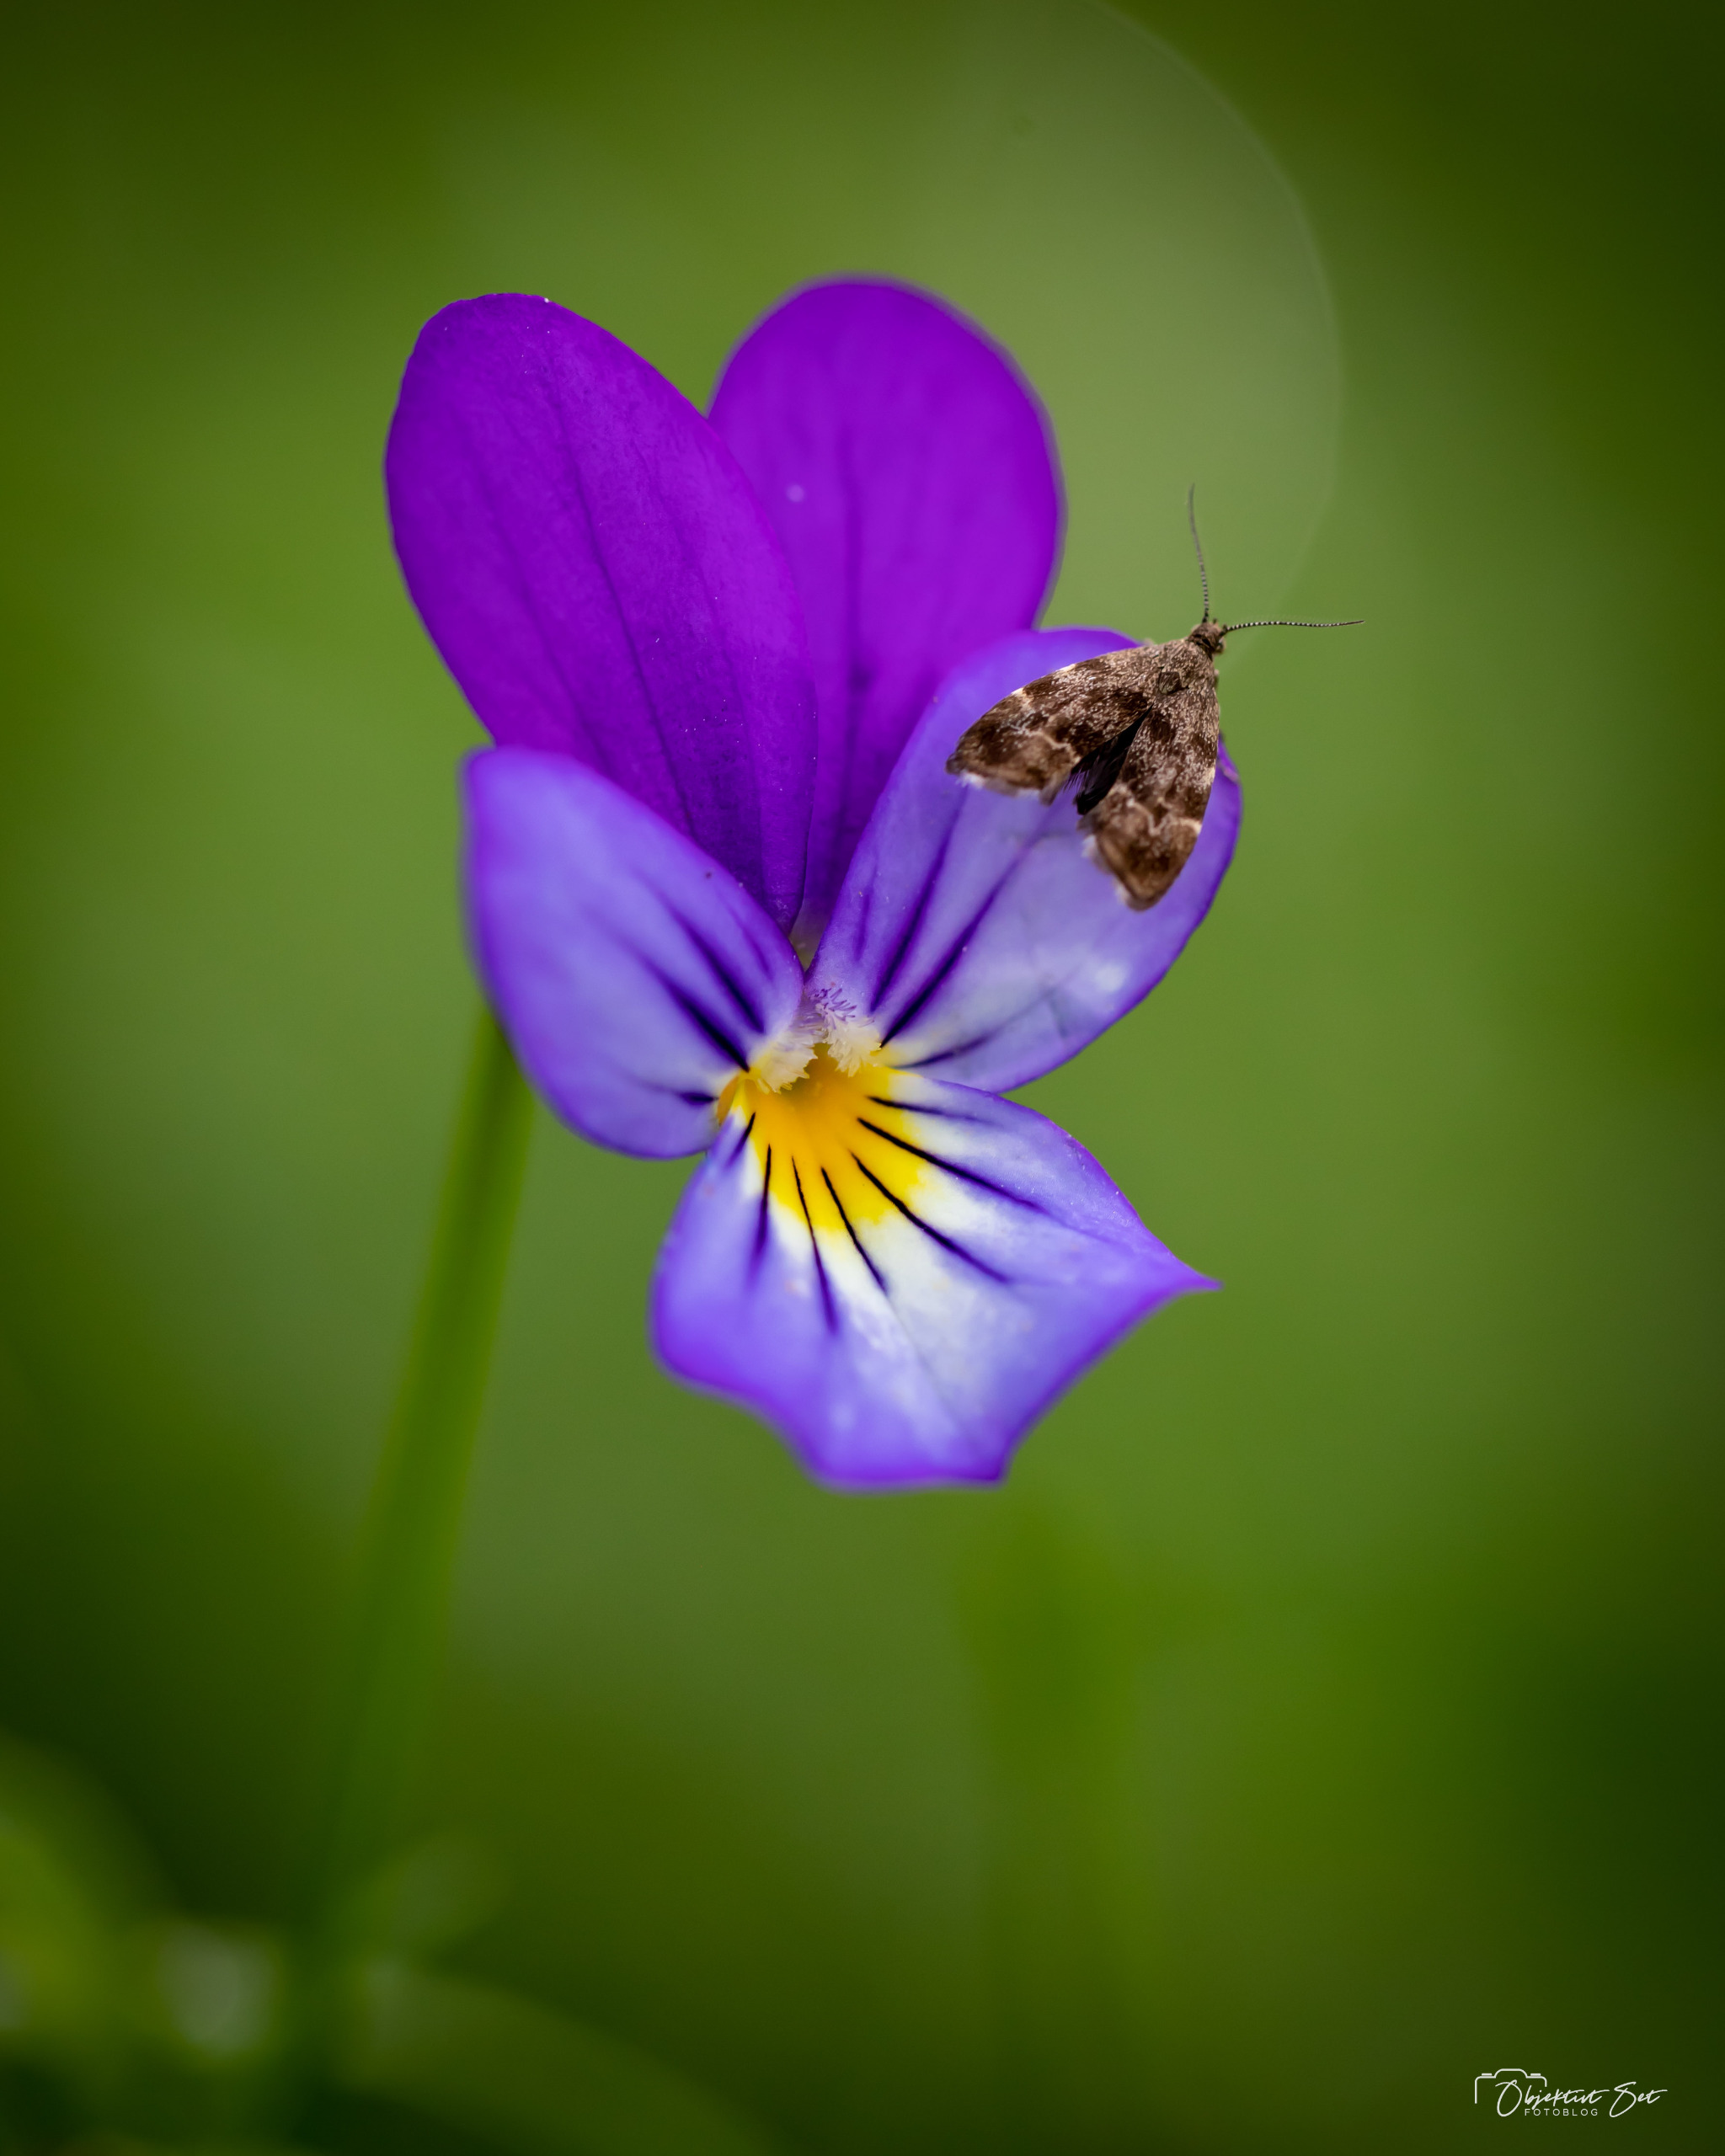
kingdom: Animalia
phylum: Arthropoda
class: Insecta
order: Lepidoptera
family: Choreutidae
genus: Anthophila
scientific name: Anthophila fabriciana
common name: Bredvinget nældevikler
